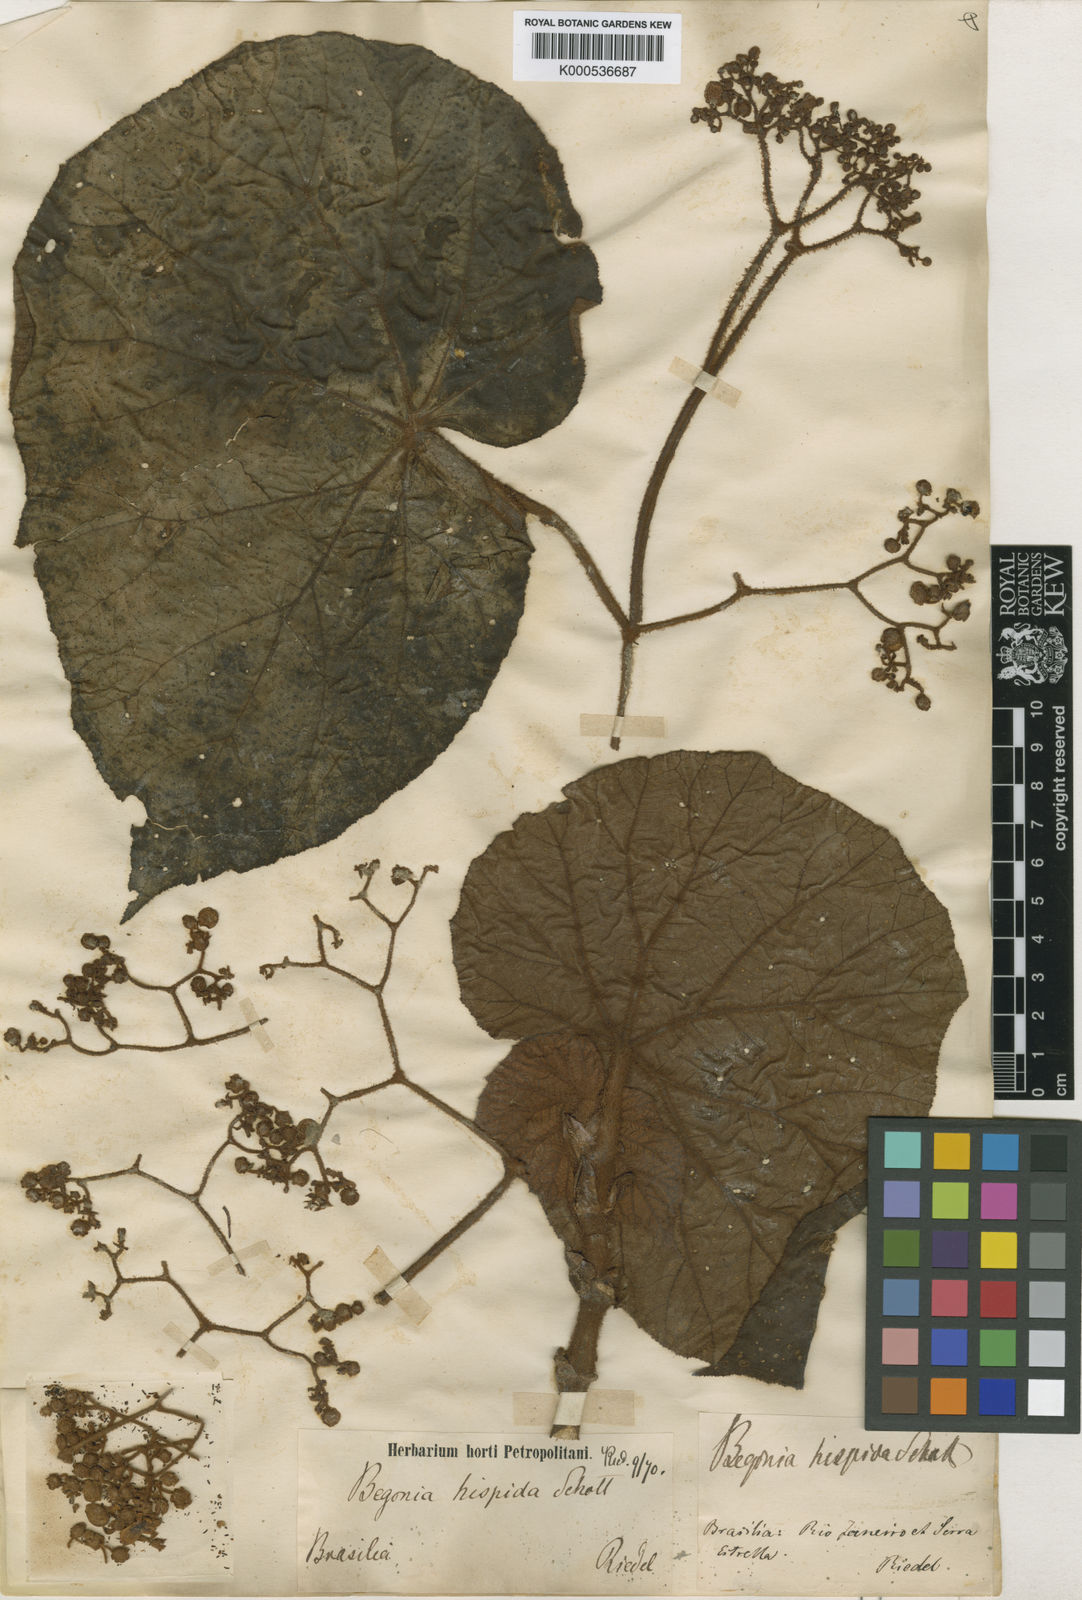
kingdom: Plantae
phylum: Tracheophyta
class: Magnoliopsida
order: Cucurbitales
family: Begoniaceae
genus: Begonia
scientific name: Begonia
